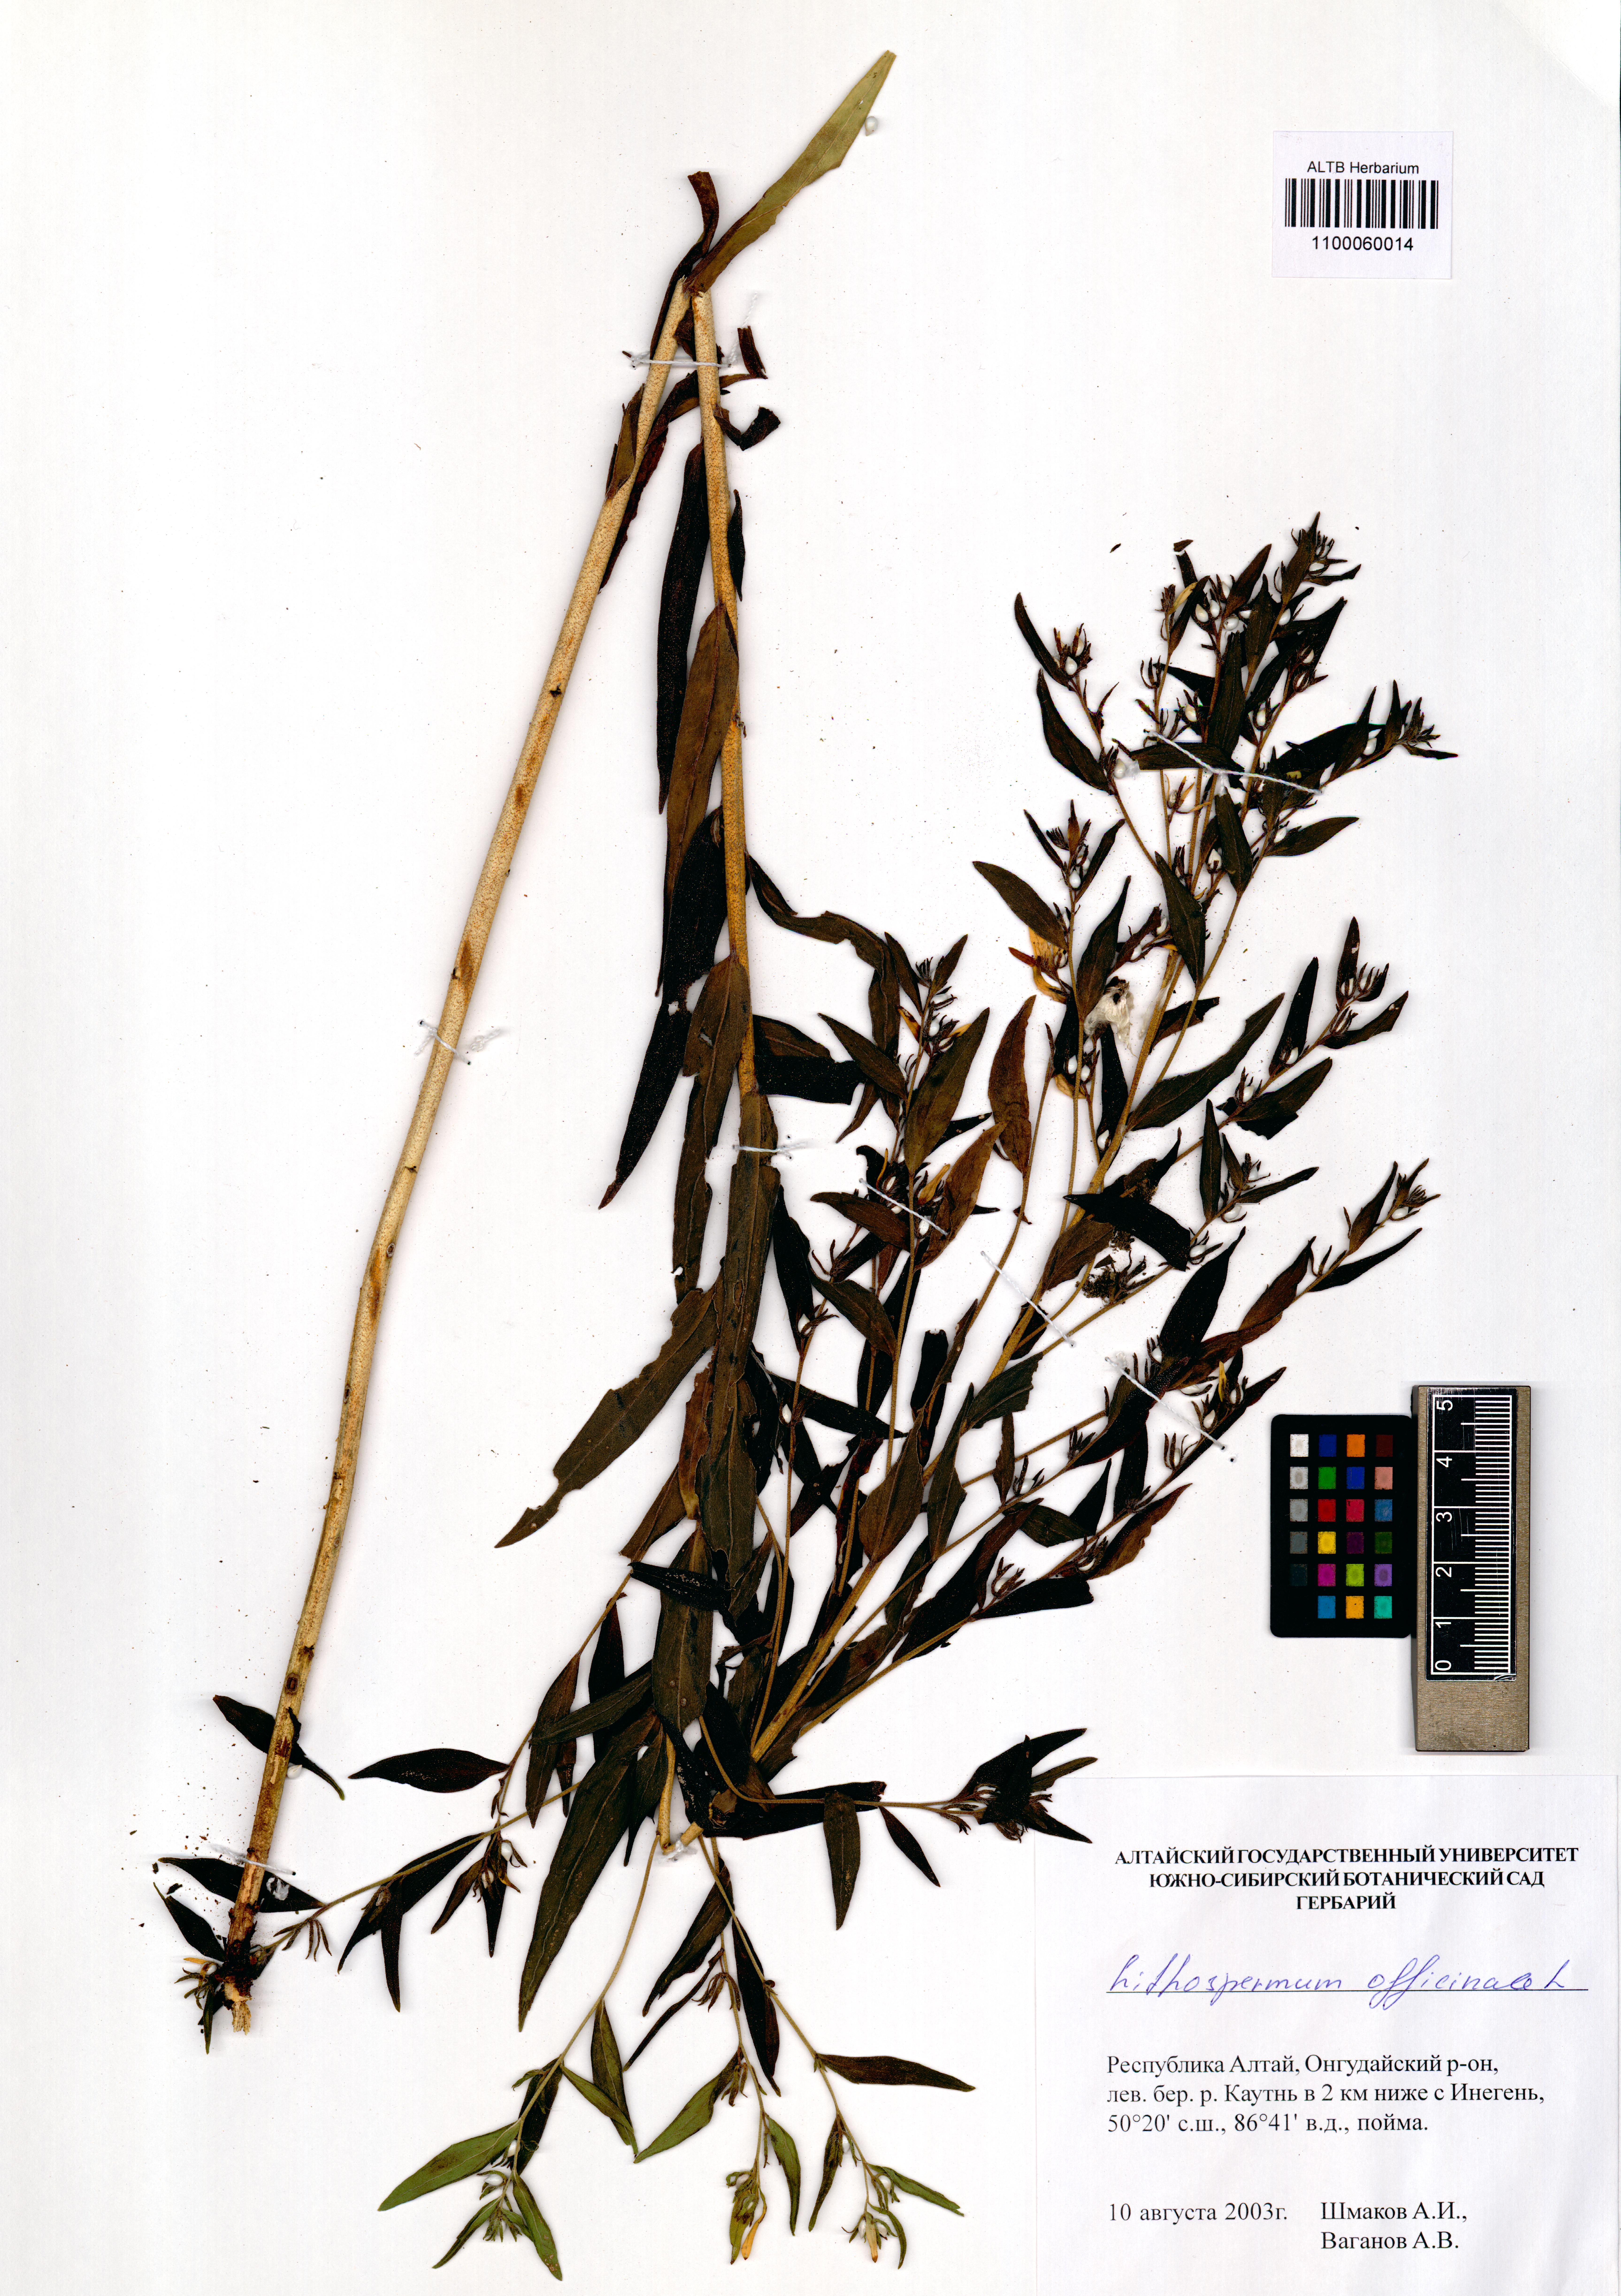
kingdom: Plantae
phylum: Tracheophyta
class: Magnoliopsida
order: Boraginales
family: Boraginaceae
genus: Lithospermum
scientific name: Lithospermum officinale
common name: Common gromwell
